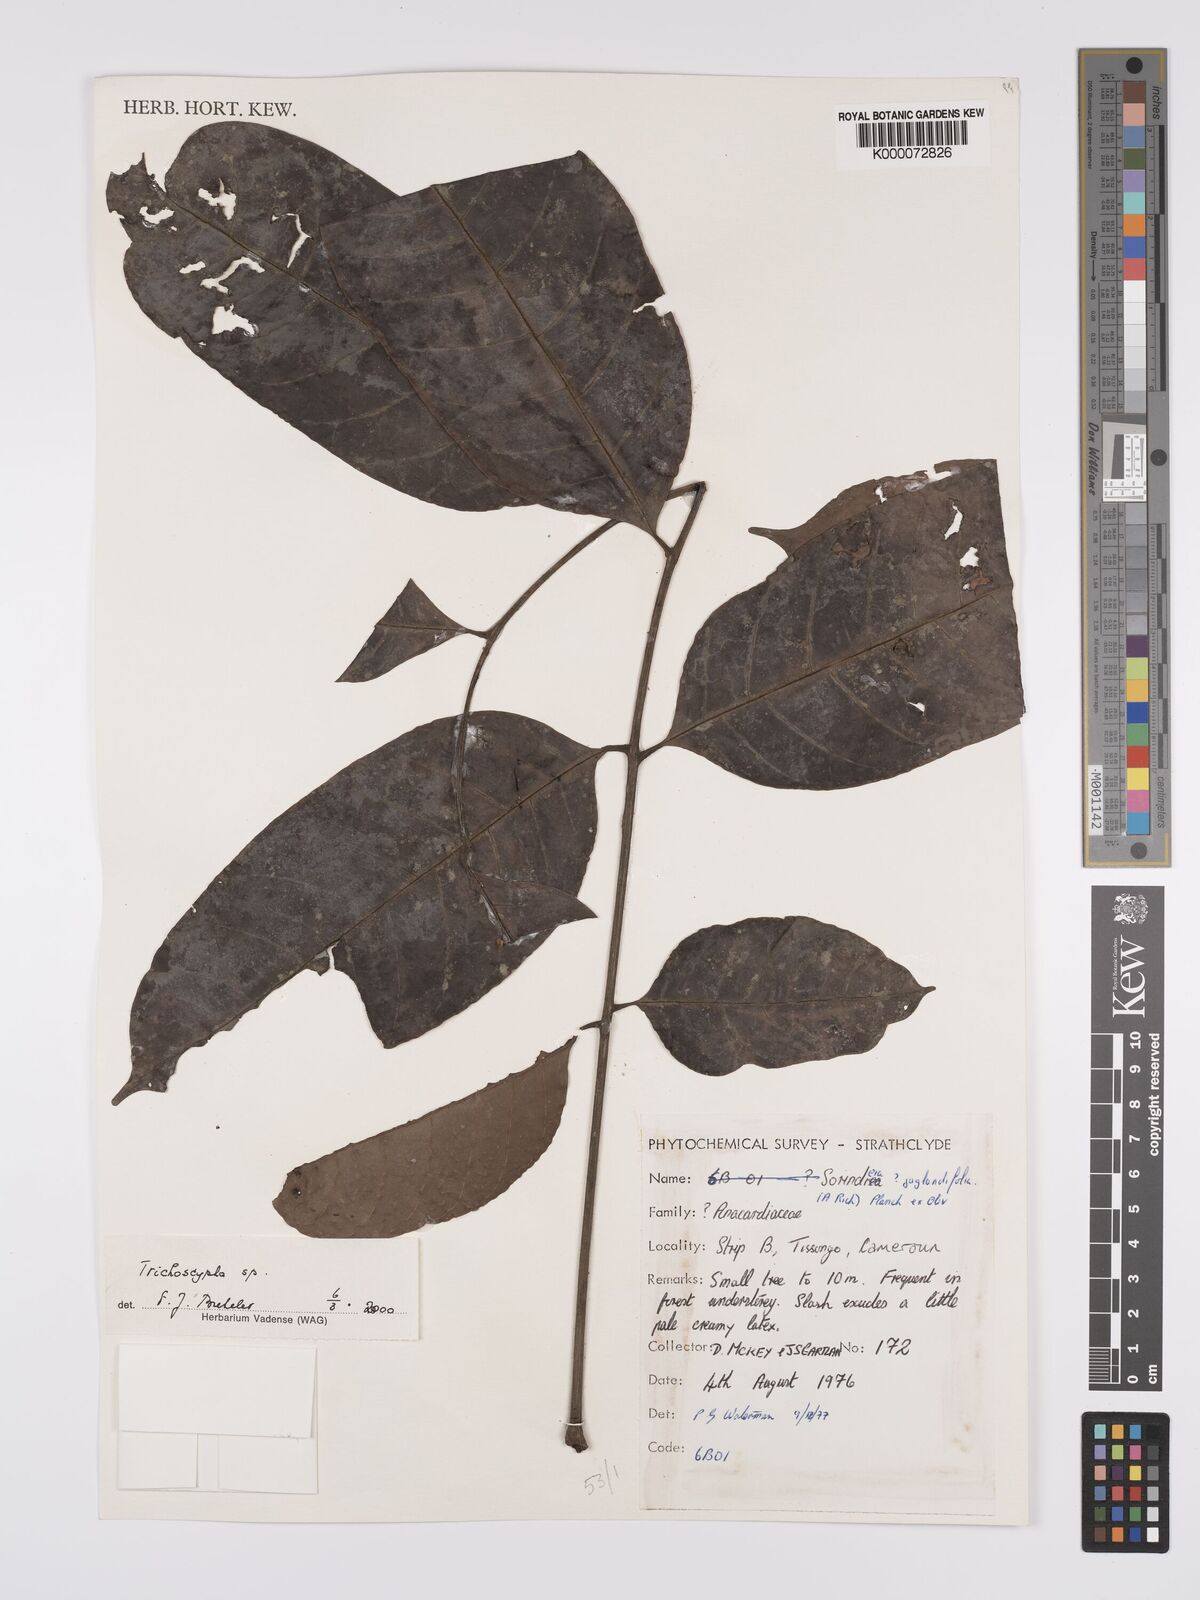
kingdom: Plantae
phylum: Tracheophyta
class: Magnoliopsida
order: Sapindales
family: Sapindaceae
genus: Paullinia
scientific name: Paullinia sprucei
